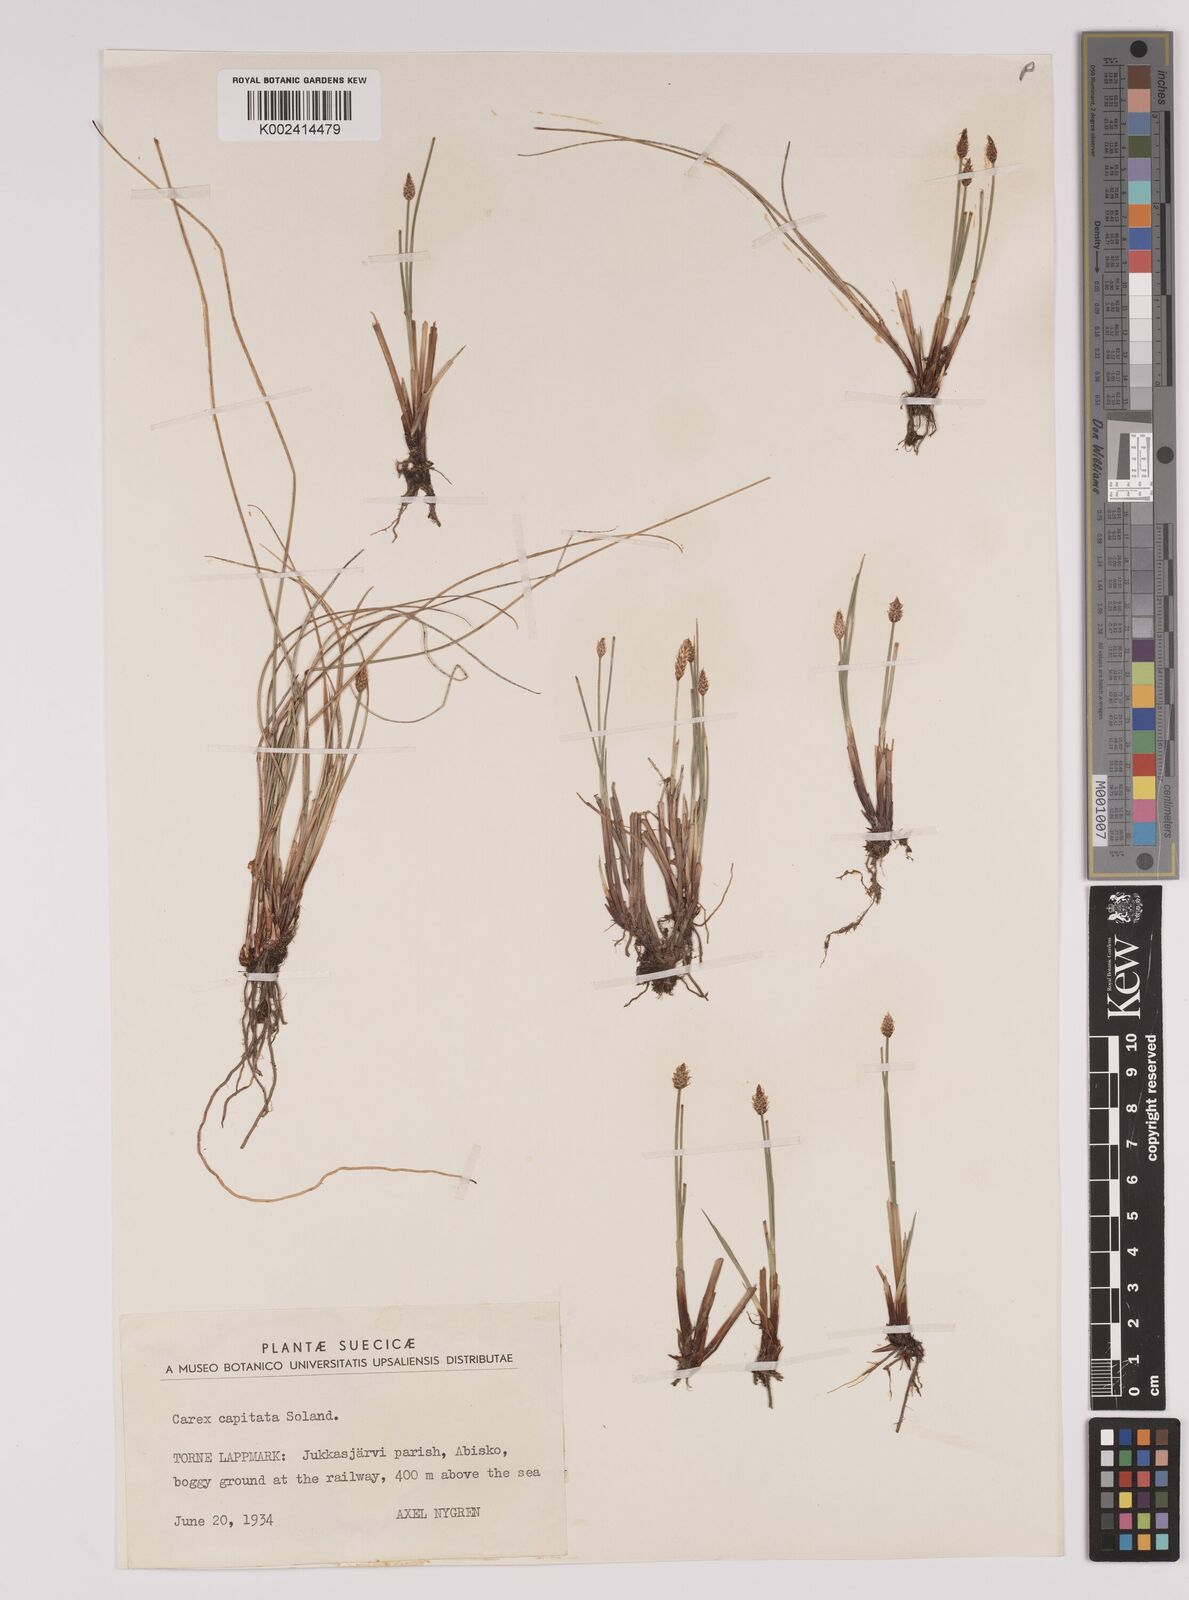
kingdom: Plantae
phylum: Tracheophyta
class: Liliopsida
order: Poales
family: Cyperaceae
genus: Carex
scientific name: Carex capitata
